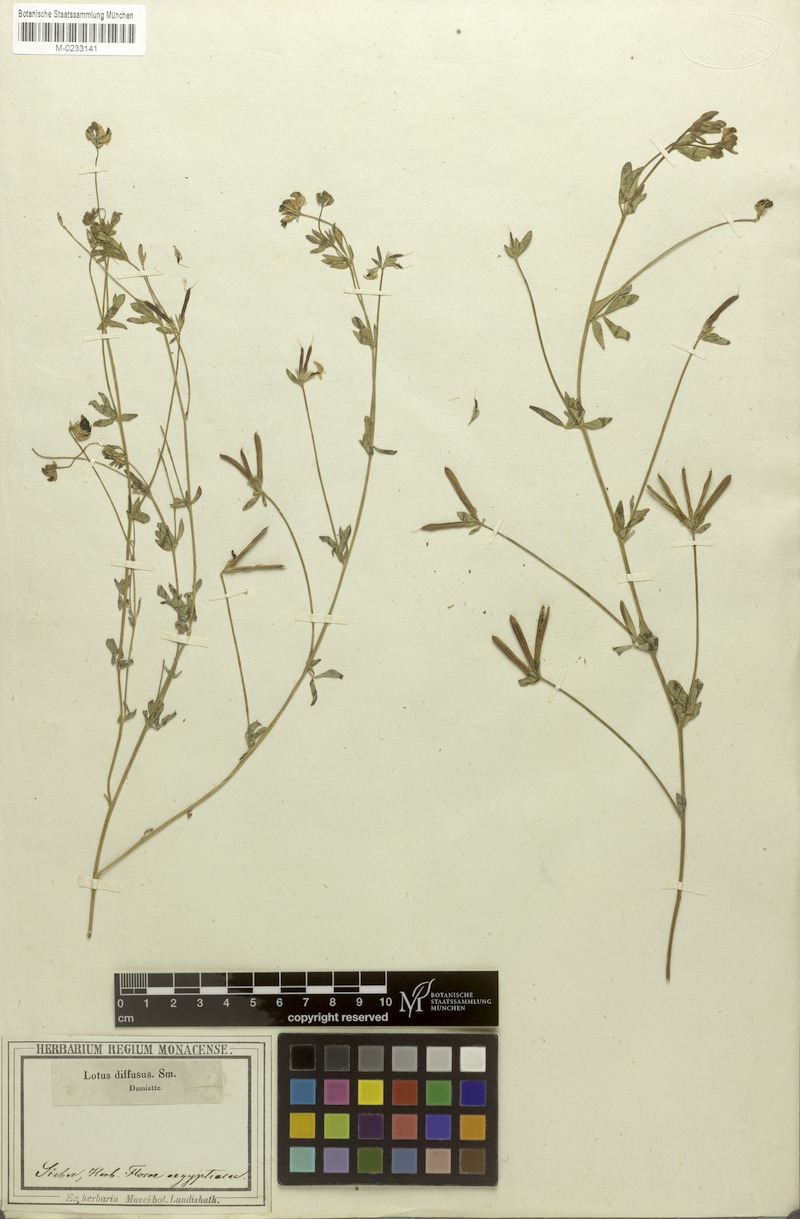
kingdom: Plantae
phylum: Tracheophyta
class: Magnoliopsida
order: Fabales
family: Fabaceae
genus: Lotus
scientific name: Lotus angustissimus
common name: Slender bird's-foot trefoil
